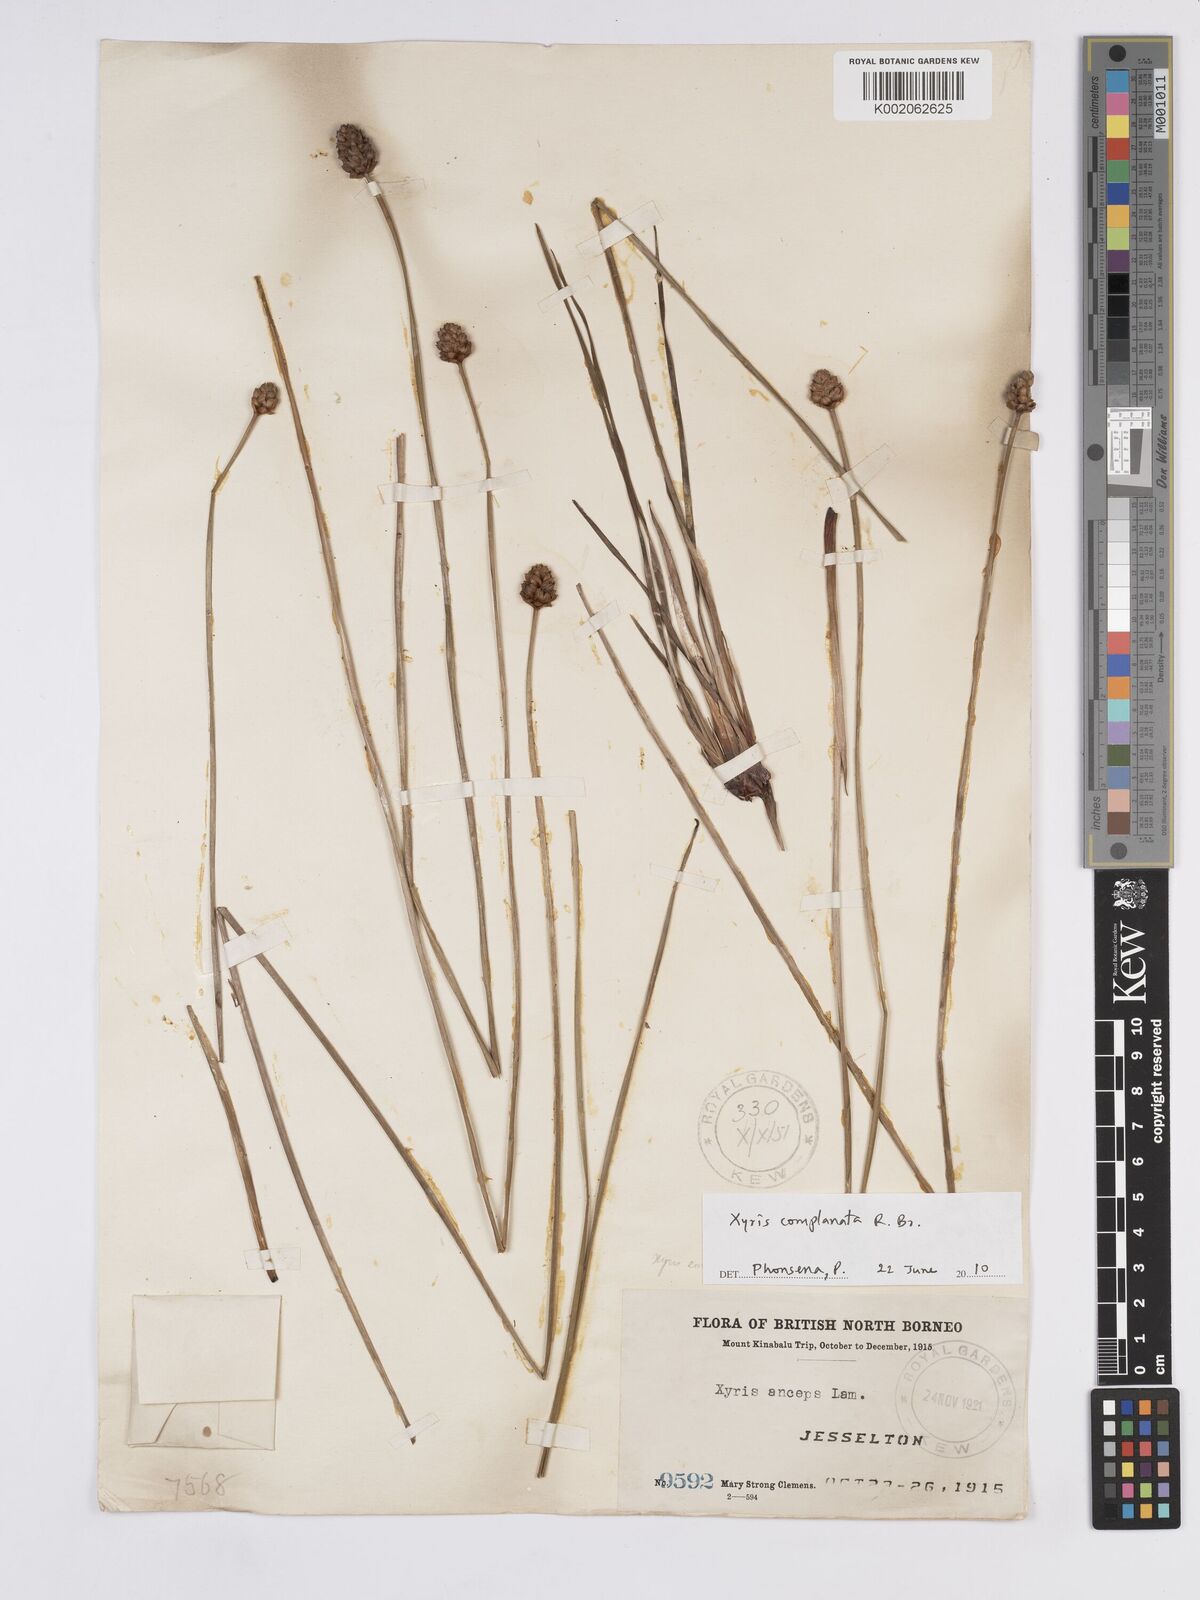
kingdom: Plantae
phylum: Tracheophyta
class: Liliopsida
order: Poales
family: Xyridaceae
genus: Xyris
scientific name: Xyris complanata
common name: Hawai'i yelloweyed grass
